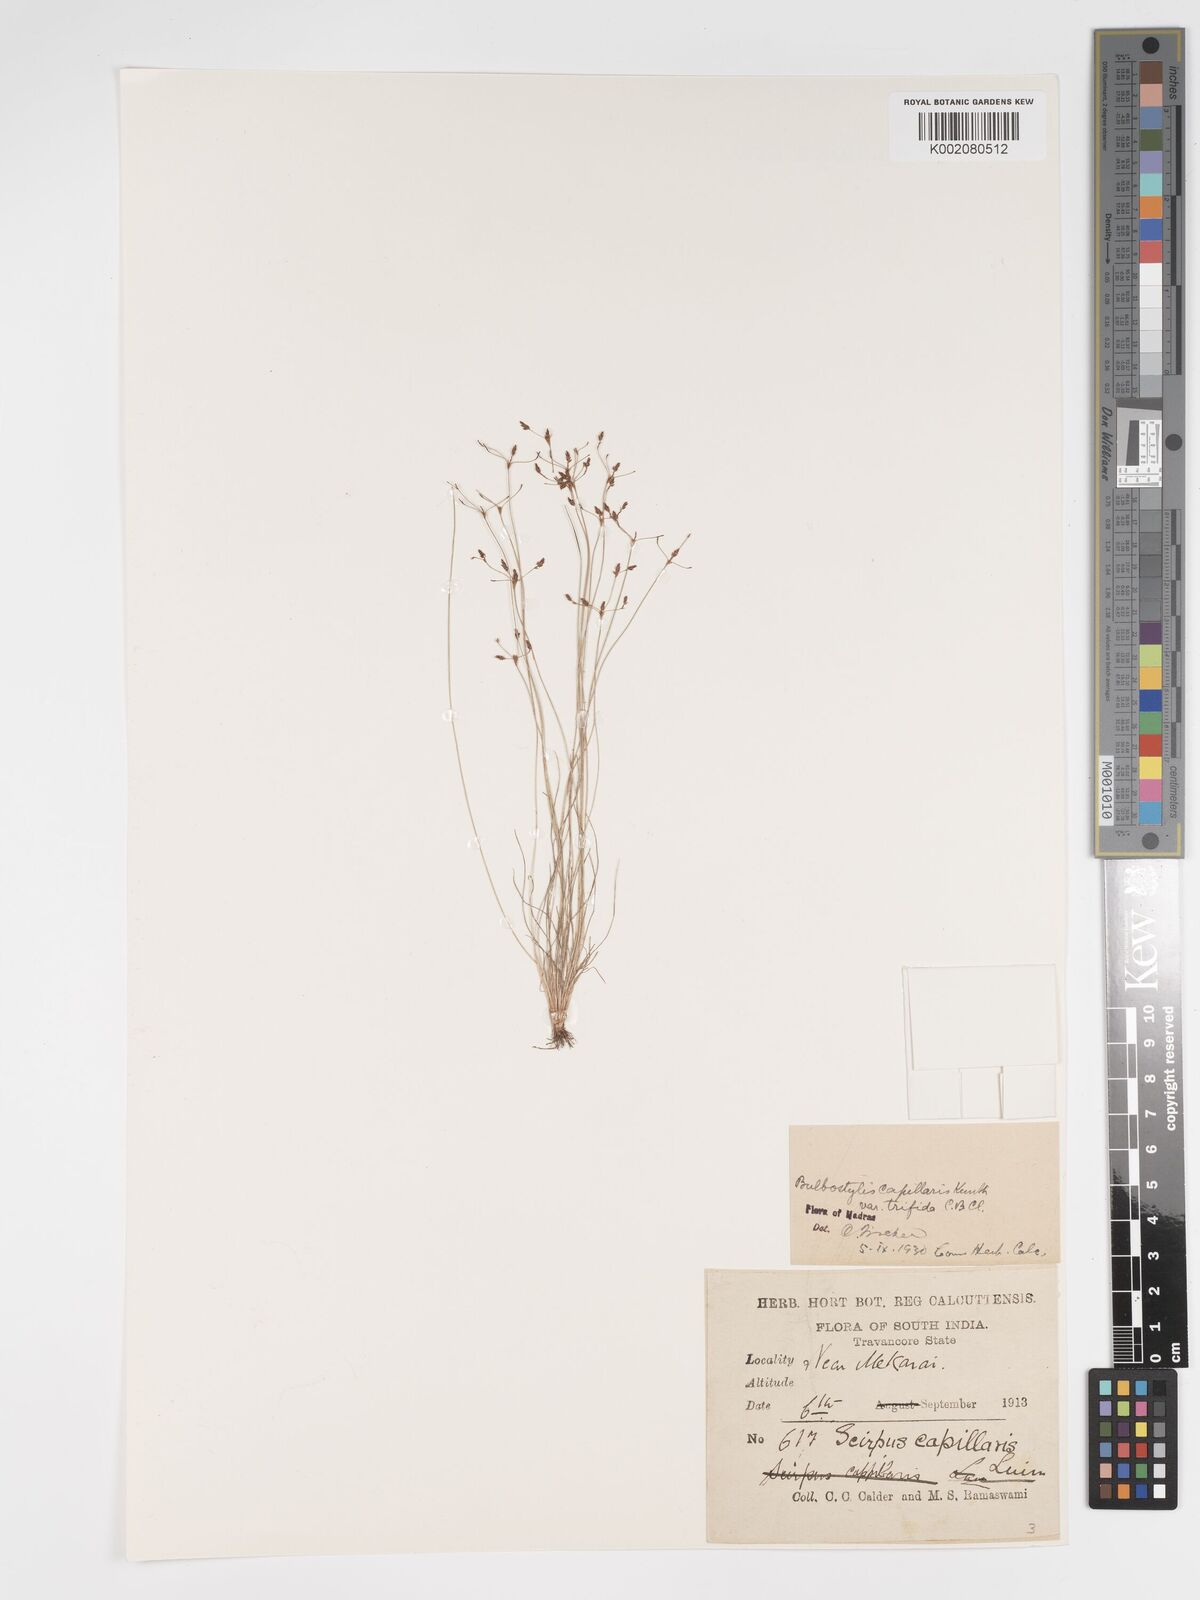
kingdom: Plantae
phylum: Tracheophyta
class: Liliopsida
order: Poales
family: Cyperaceae
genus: Bulbostylis
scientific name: Bulbostylis capillaris
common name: Densetuft hairsedge
